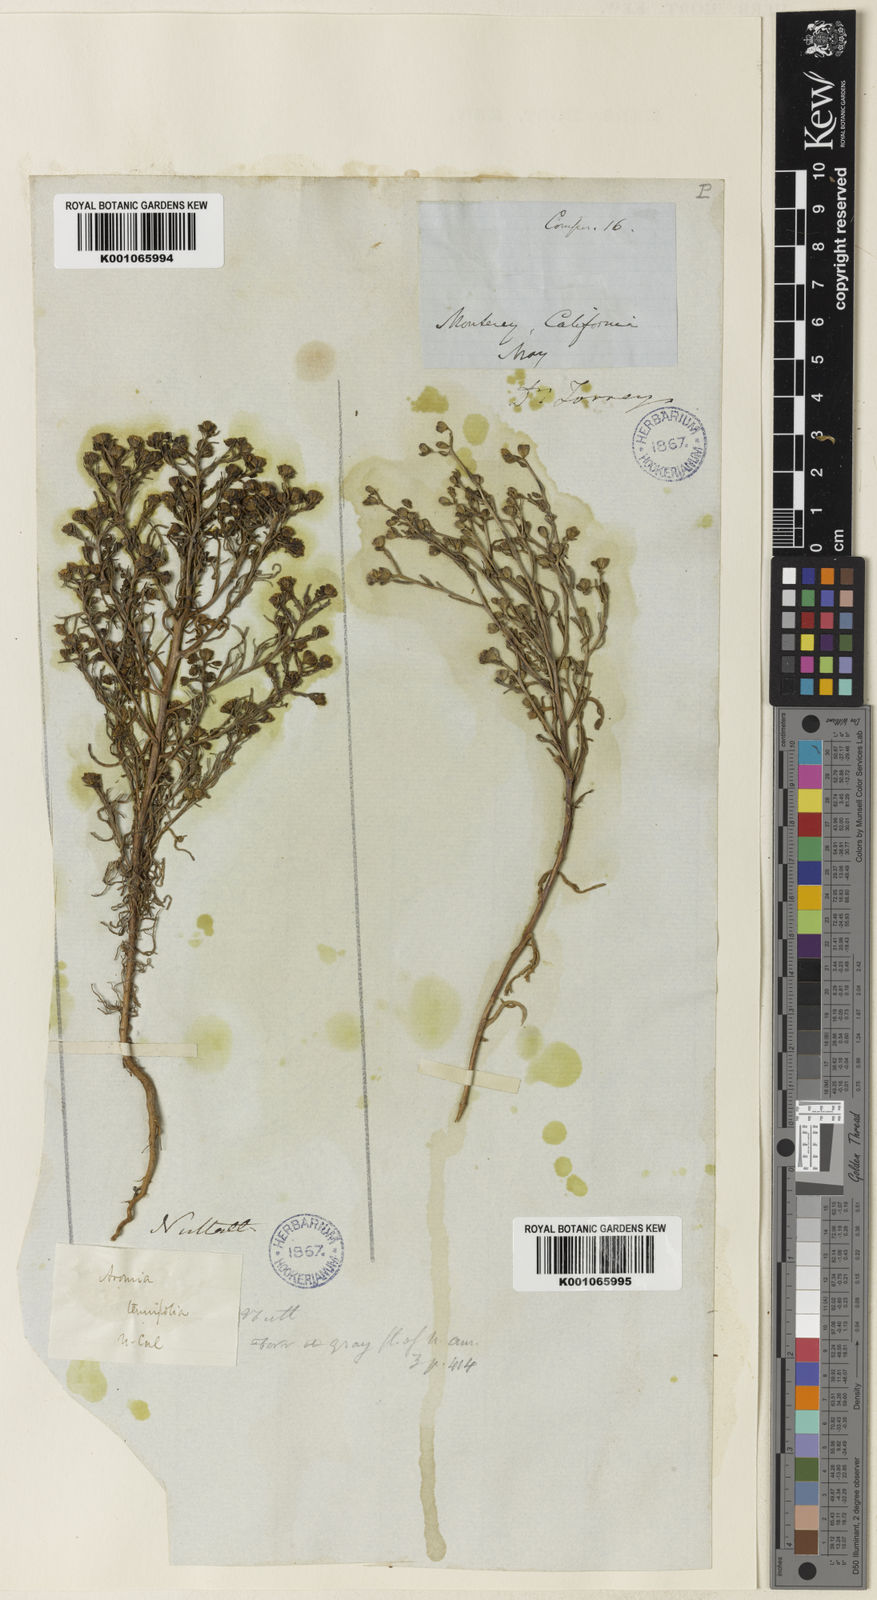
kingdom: Plantae
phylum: Tracheophyta
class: Magnoliopsida
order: Asterales
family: Asteraceae
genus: Amblyopappus
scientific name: Amblyopappus pusillus
